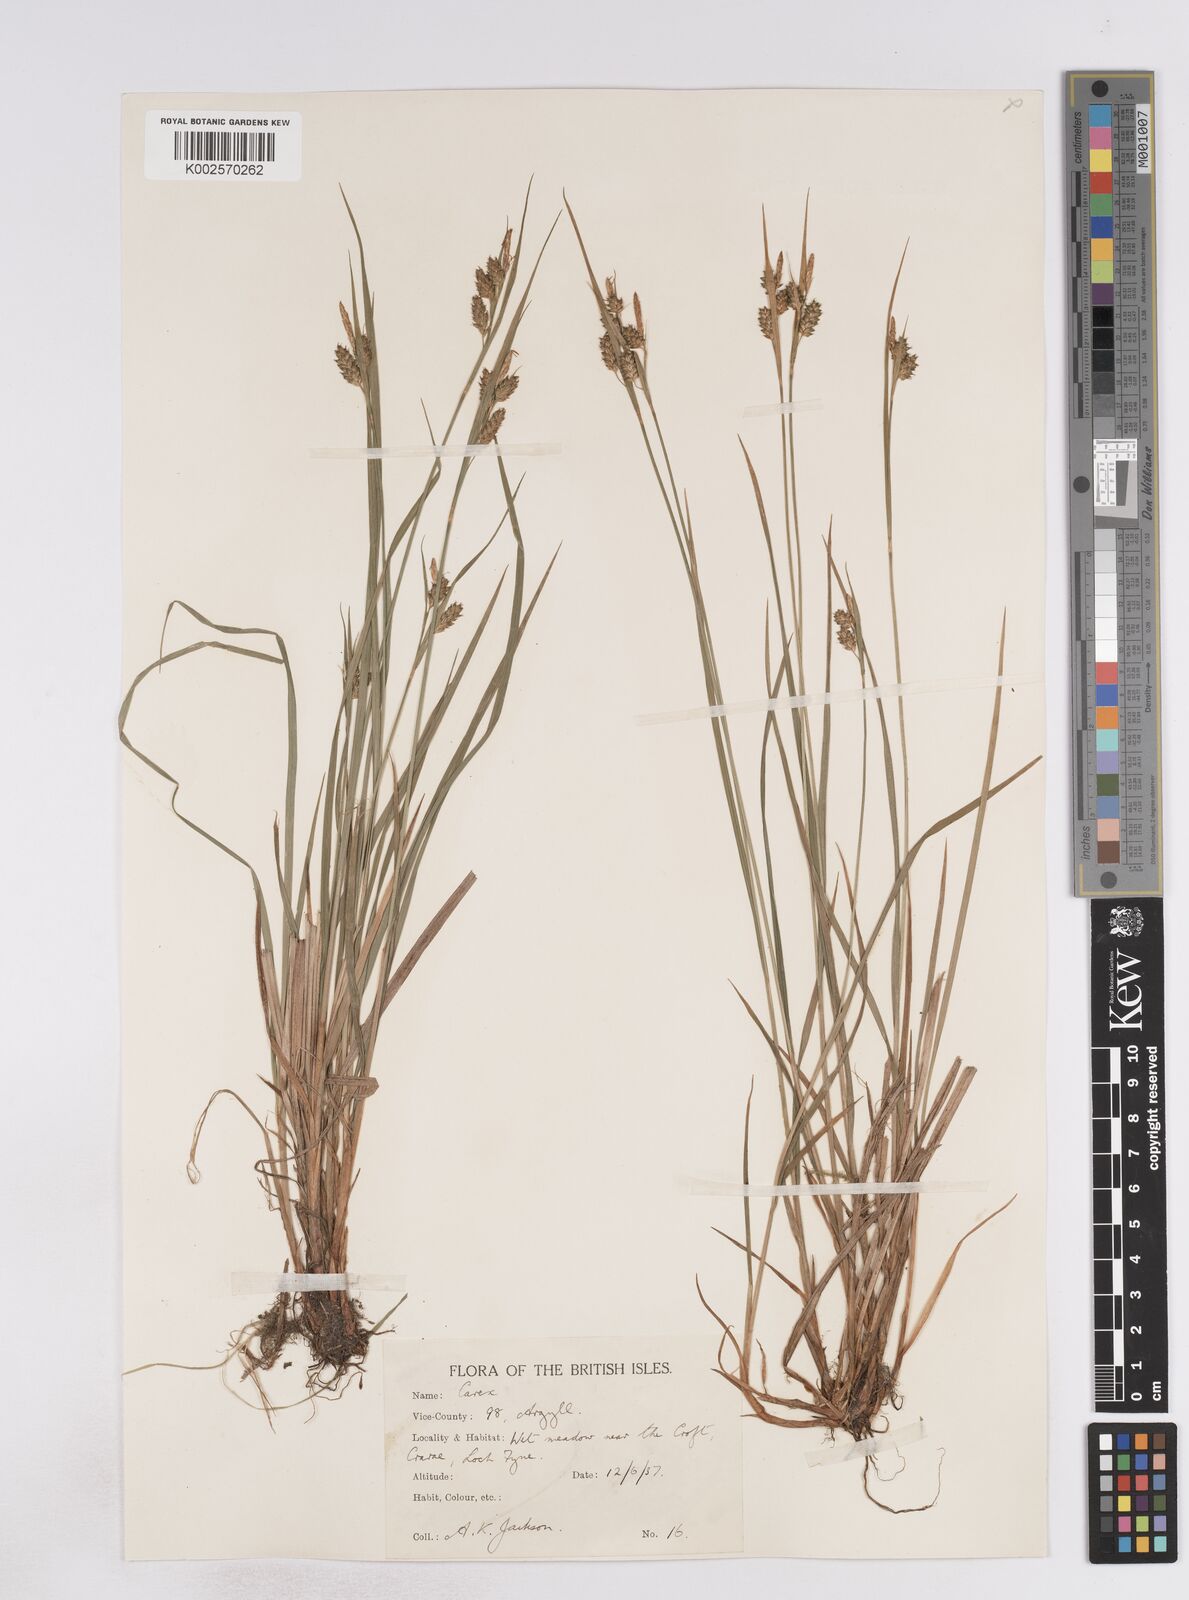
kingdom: Plantae
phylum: Tracheophyta
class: Liliopsida
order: Poales
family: Cyperaceae
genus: Carex
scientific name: Carex pallescens
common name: Pale sedge
